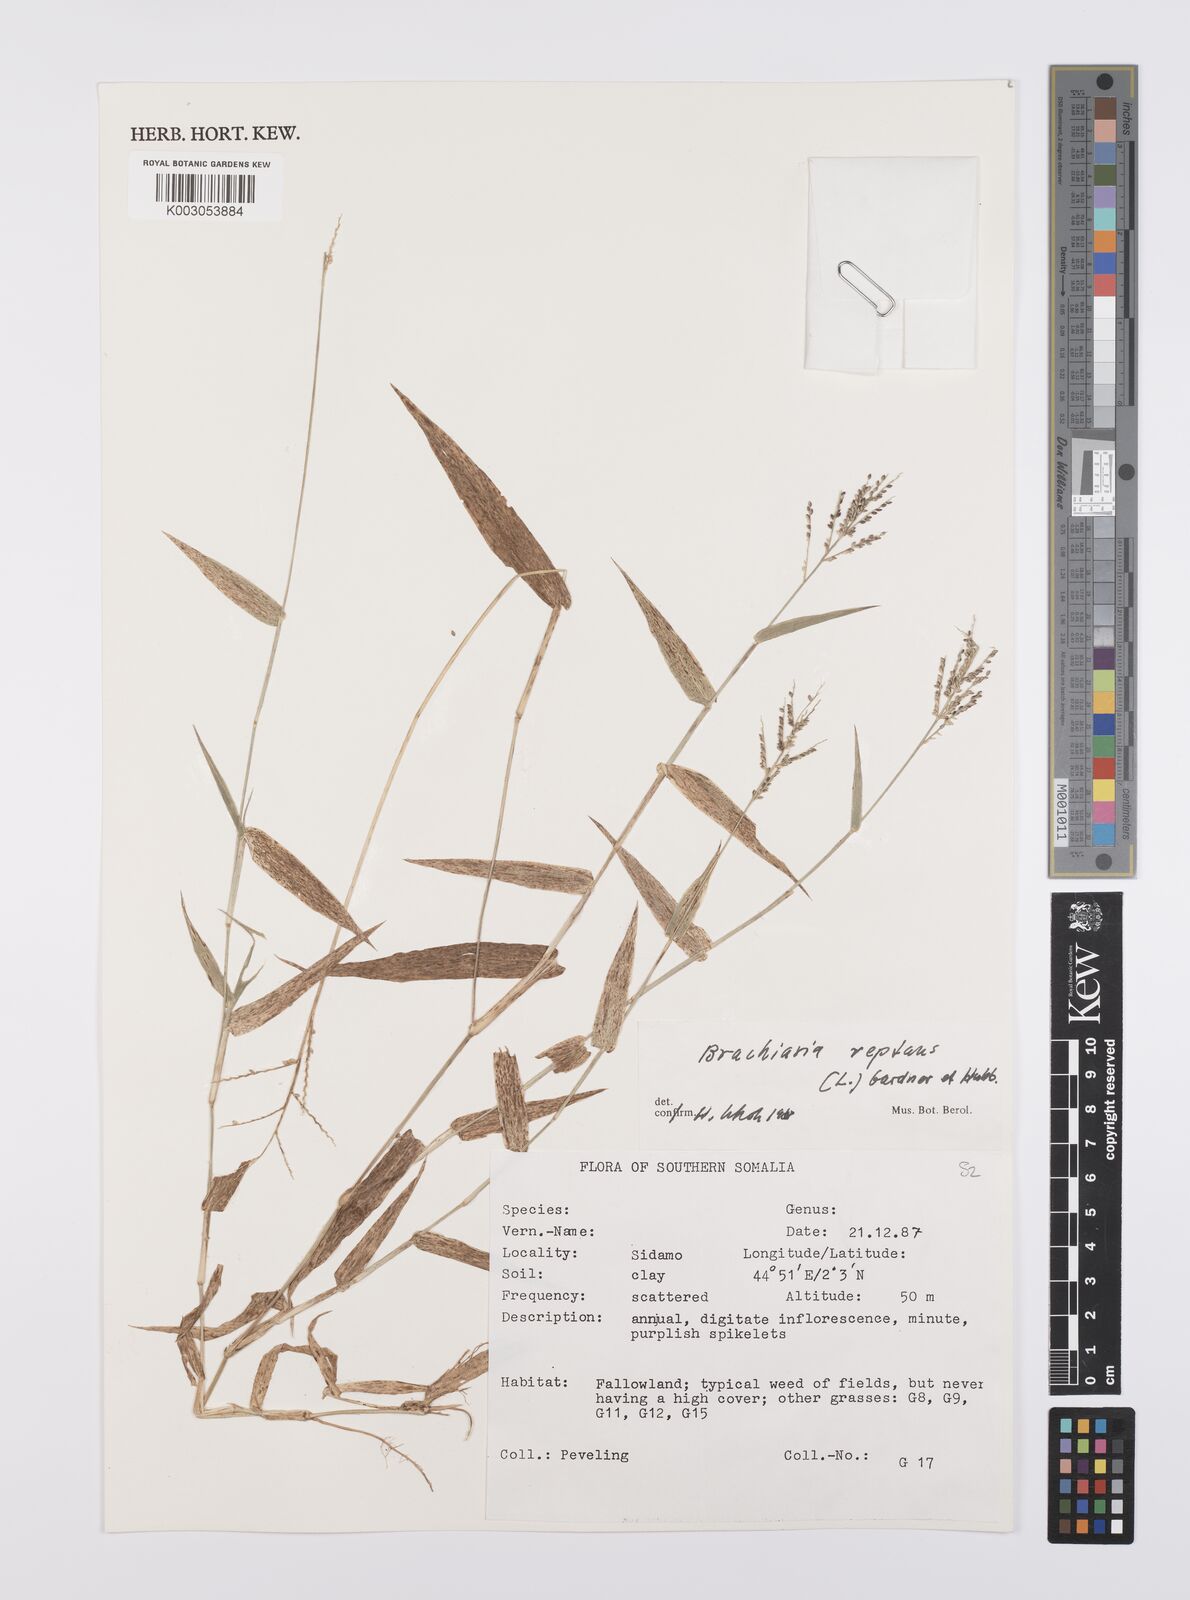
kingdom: Plantae
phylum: Tracheophyta
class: Liliopsida
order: Poales
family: Poaceae
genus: Urochloa
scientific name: Urochloa reptans
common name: Sprawling signalgrass
